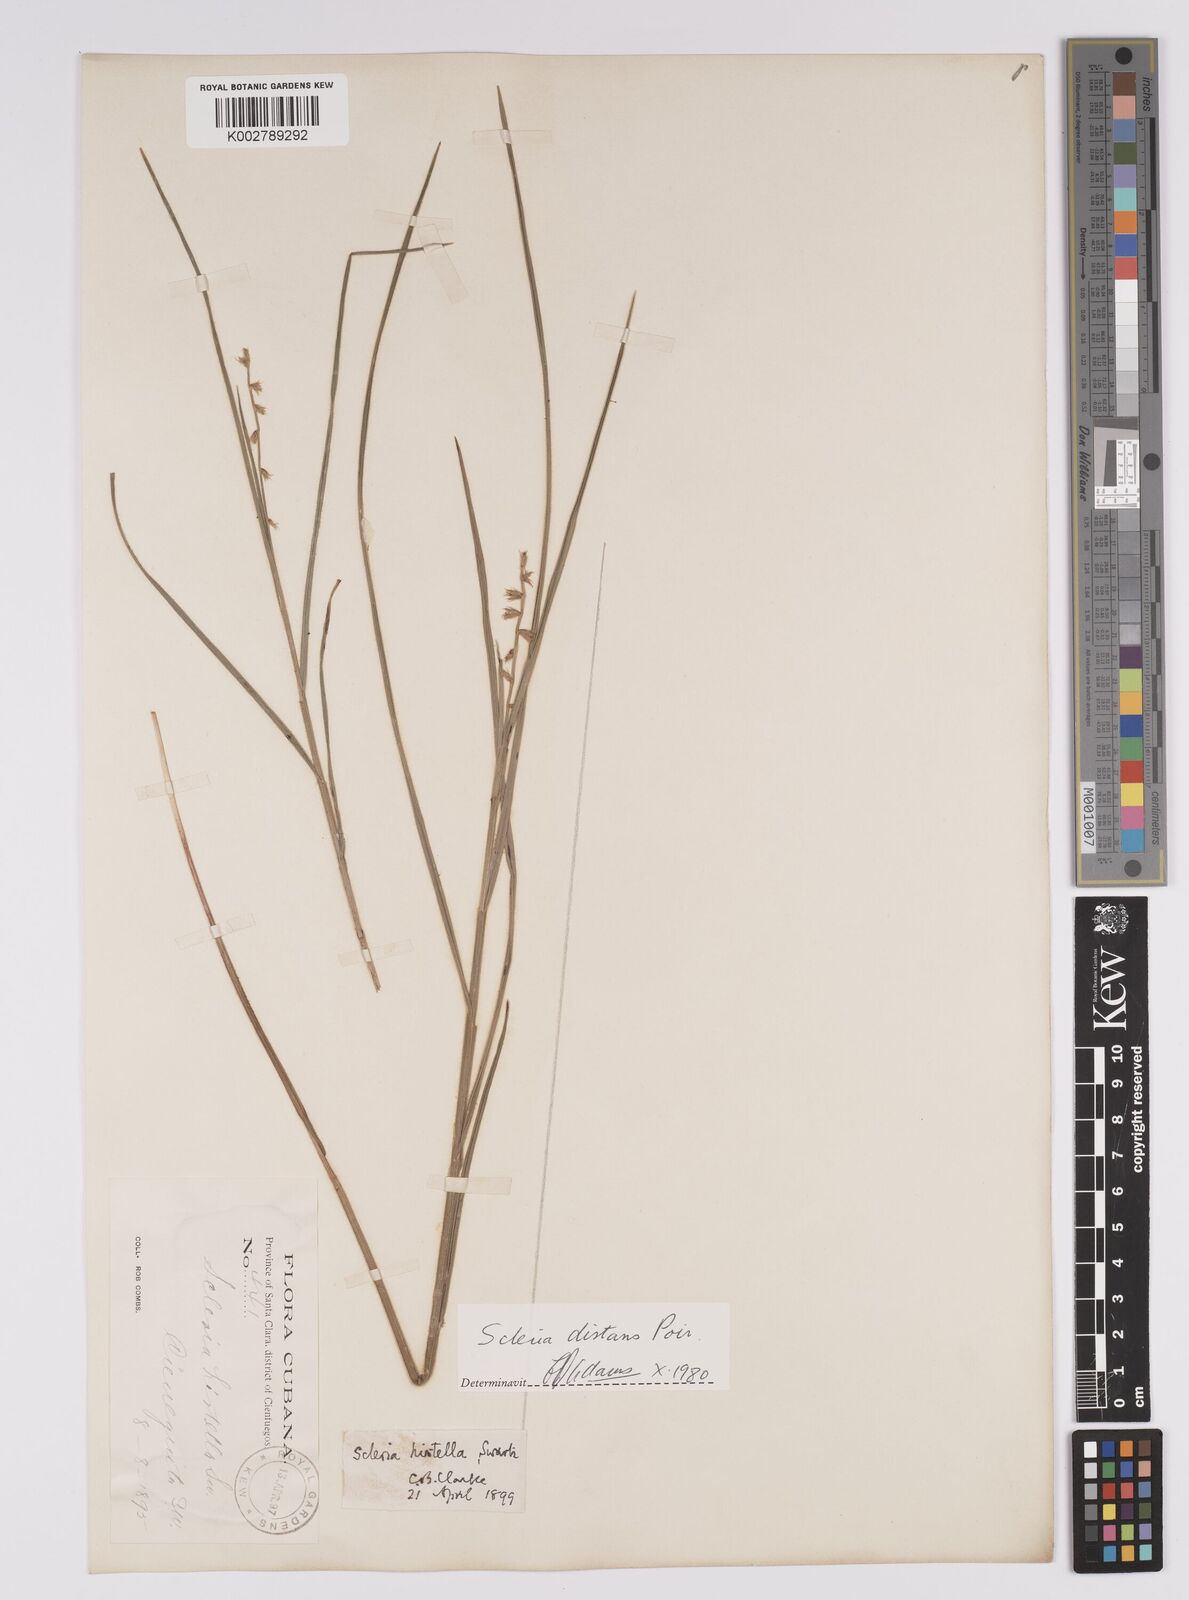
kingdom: Plantae
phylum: Tracheophyta
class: Liliopsida
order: Poales
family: Cyperaceae
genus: Scleria
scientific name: Scleria distans
